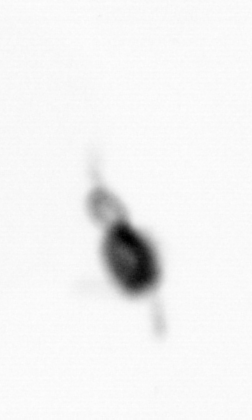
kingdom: Animalia
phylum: Arthropoda
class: Copepoda
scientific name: Copepoda
